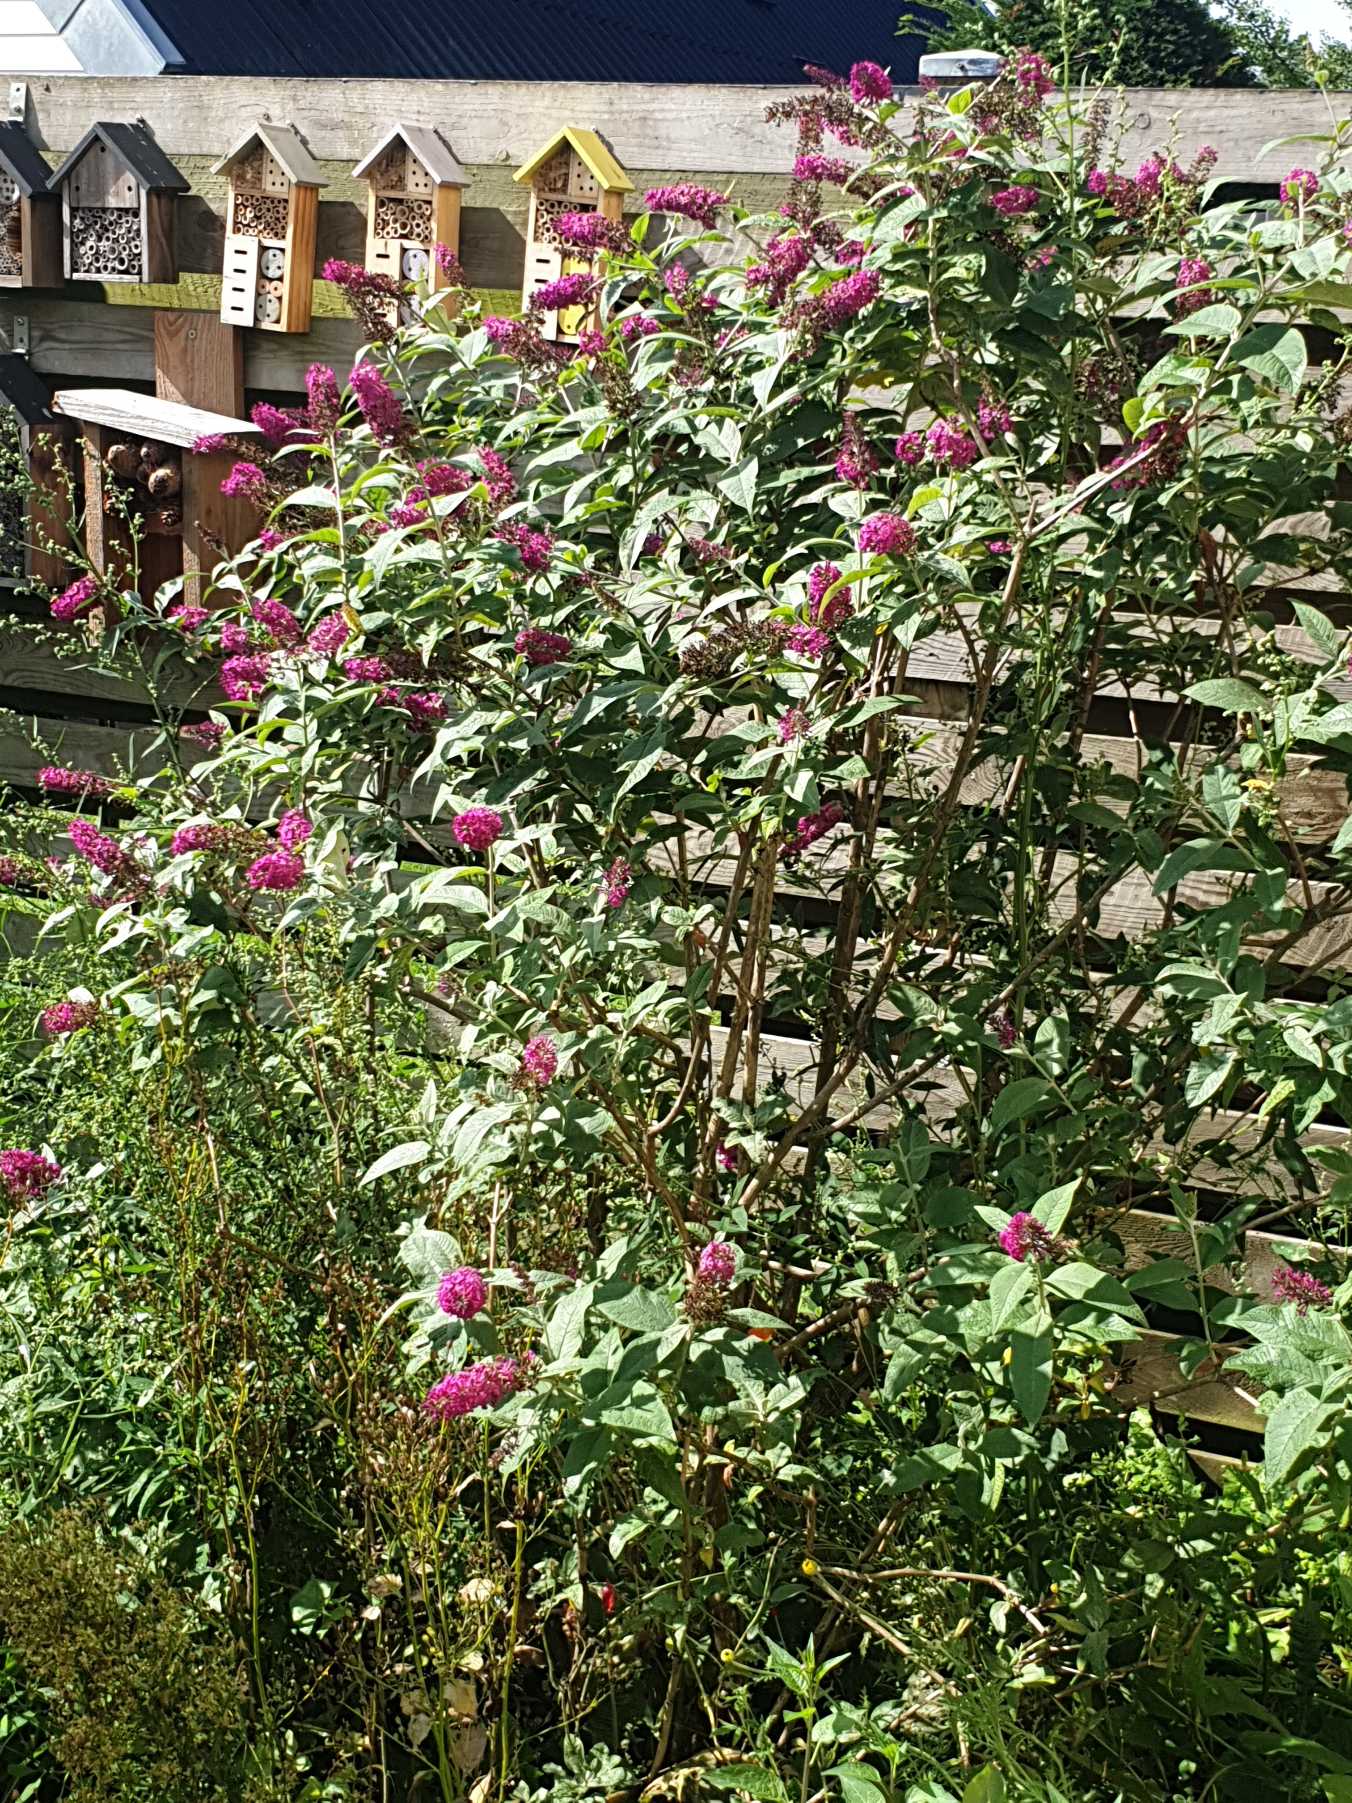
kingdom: Plantae
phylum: Tracheophyta
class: Magnoliopsida
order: Lamiales
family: Scrophulariaceae
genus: Buddleja
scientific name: Buddleja davidii
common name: Sommerfuglebusk
